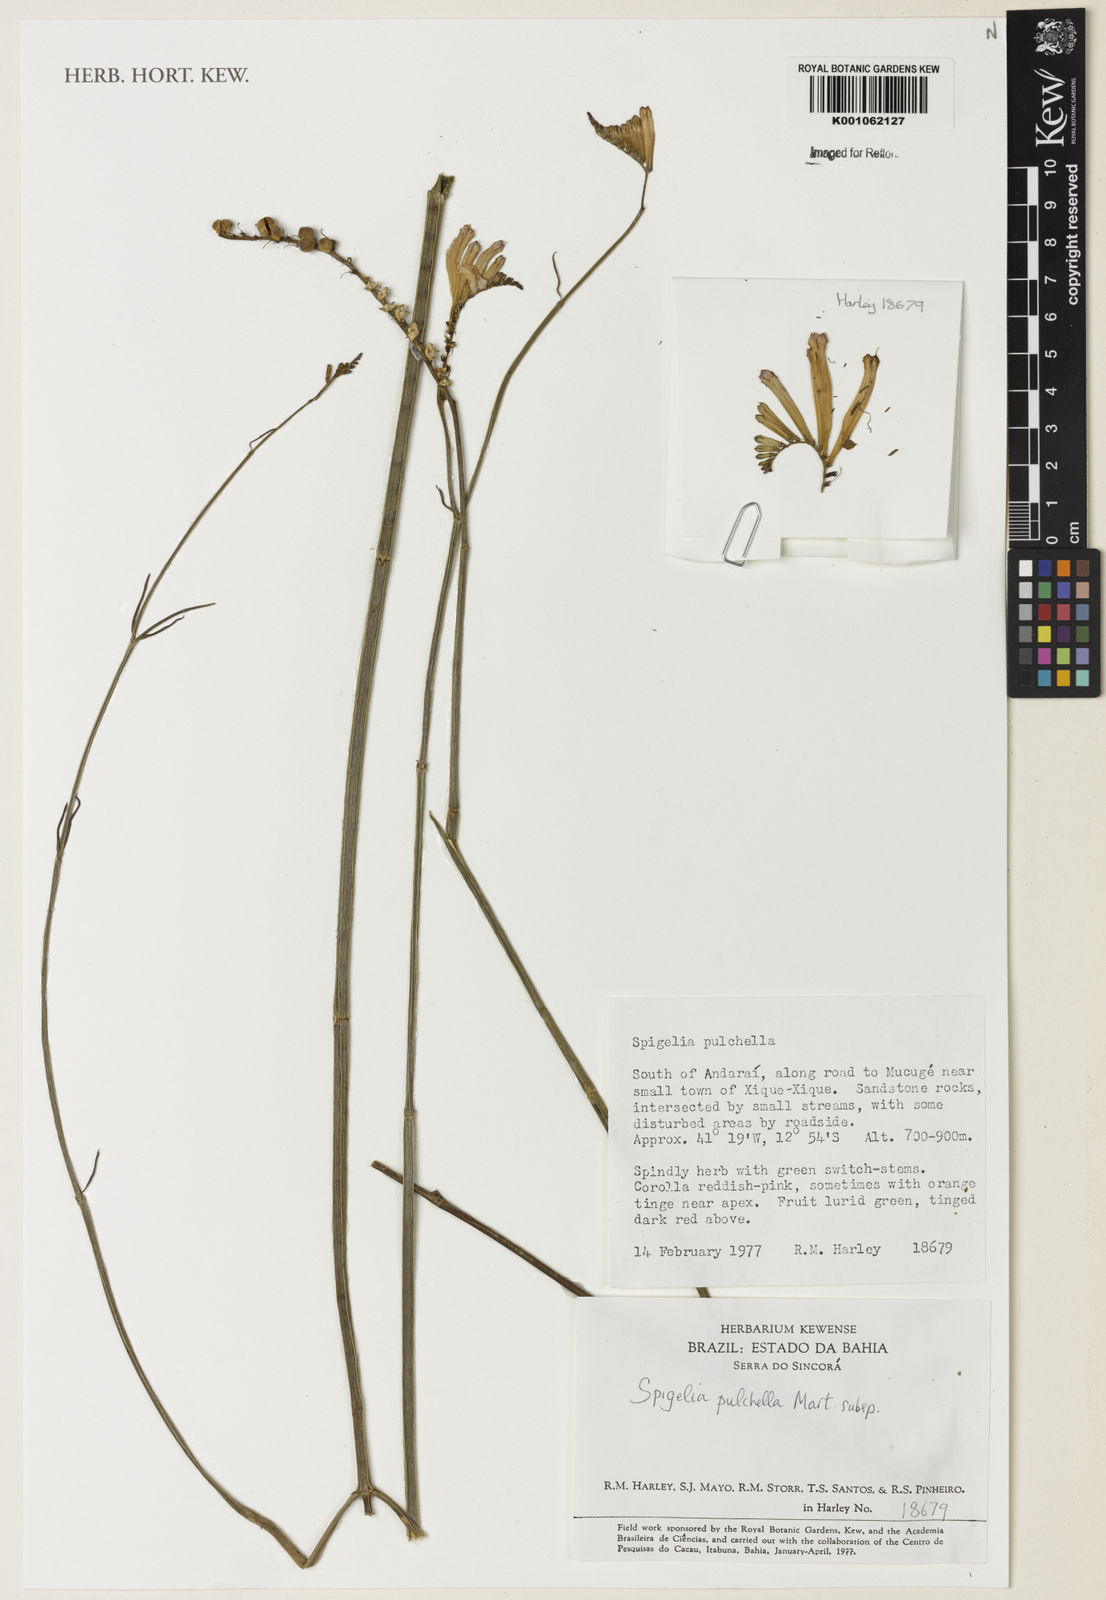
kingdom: Plantae
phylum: Tracheophyta
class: Magnoliopsida
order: Gentianales
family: Loganiaceae
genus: Spigelia
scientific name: Spigelia pulchella
